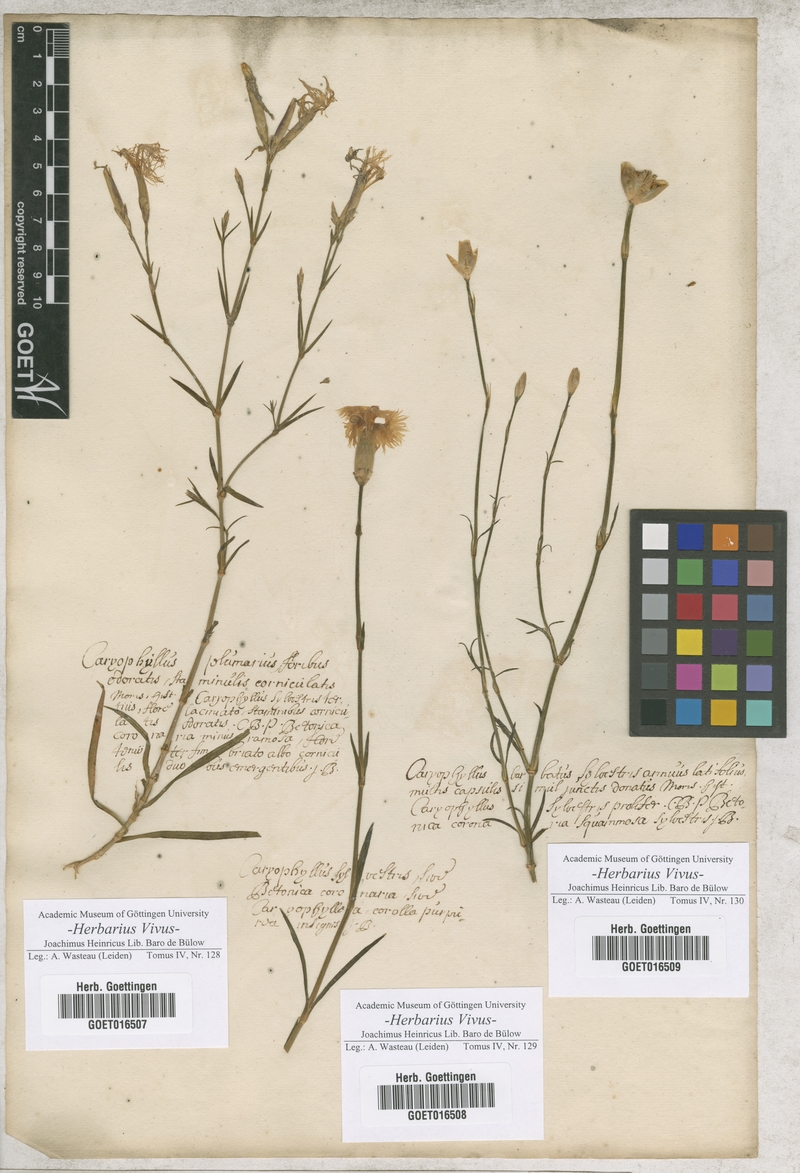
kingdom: Plantae
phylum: Tracheophyta
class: Magnoliopsida
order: Caryophyllales
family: Caryophyllaceae
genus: Dianthus
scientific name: Dianthus
